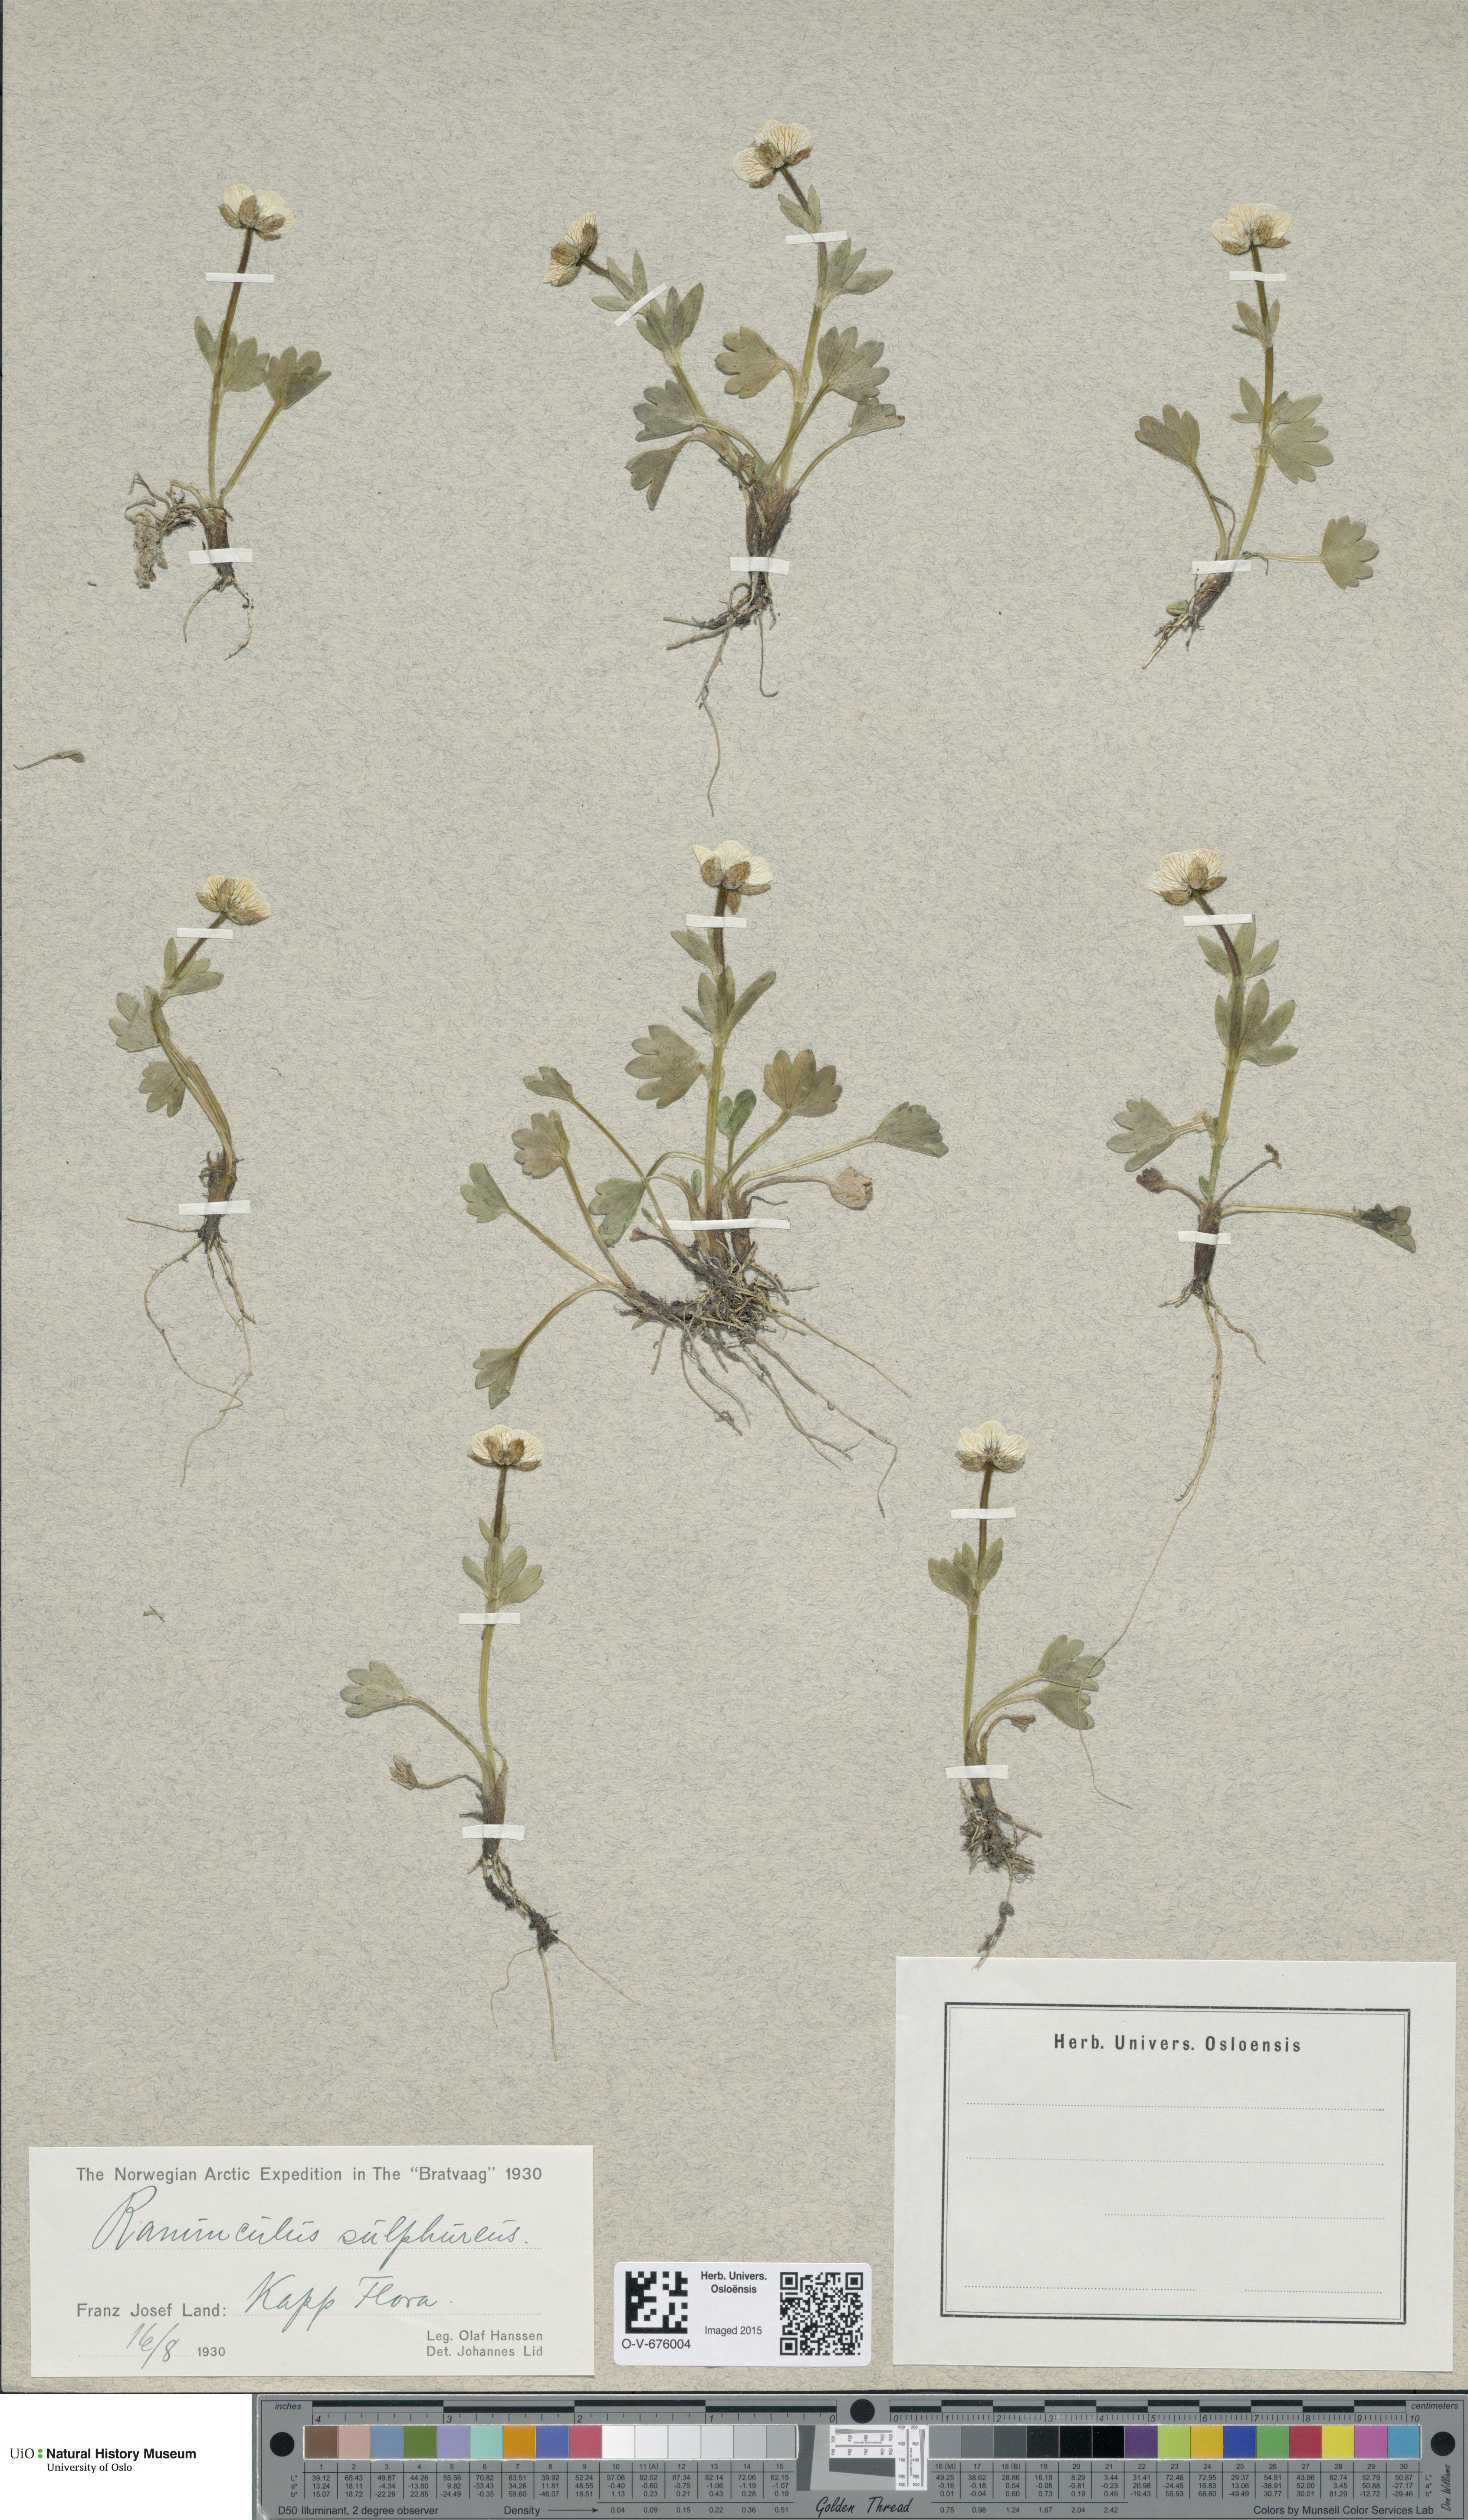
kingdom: Plantae
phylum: Tracheophyta
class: Magnoliopsida
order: Ranunculales
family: Ranunculaceae
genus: Ranunculus
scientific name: Ranunculus sulphureus
